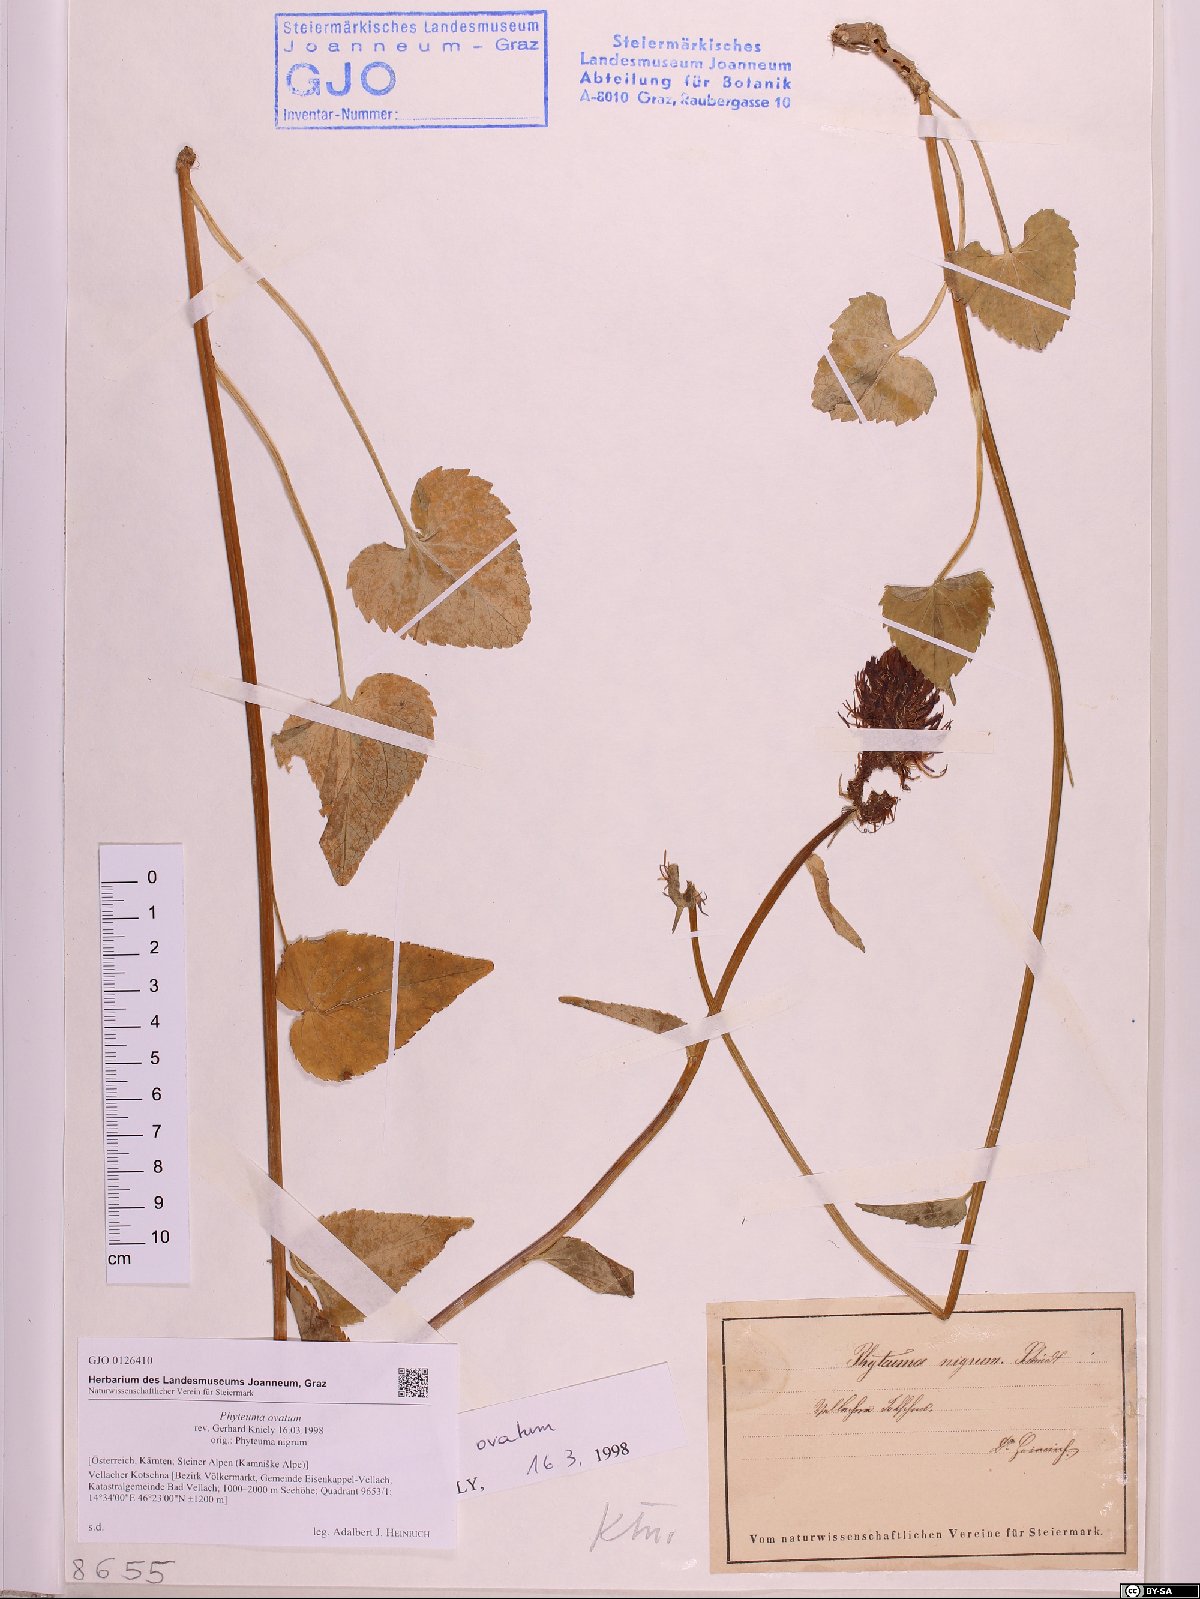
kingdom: Plantae
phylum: Tracheophyta
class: Magnoliopsida
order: Asterales
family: Campanulaceae
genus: Phyteuma
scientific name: Phyteuma ovatum
